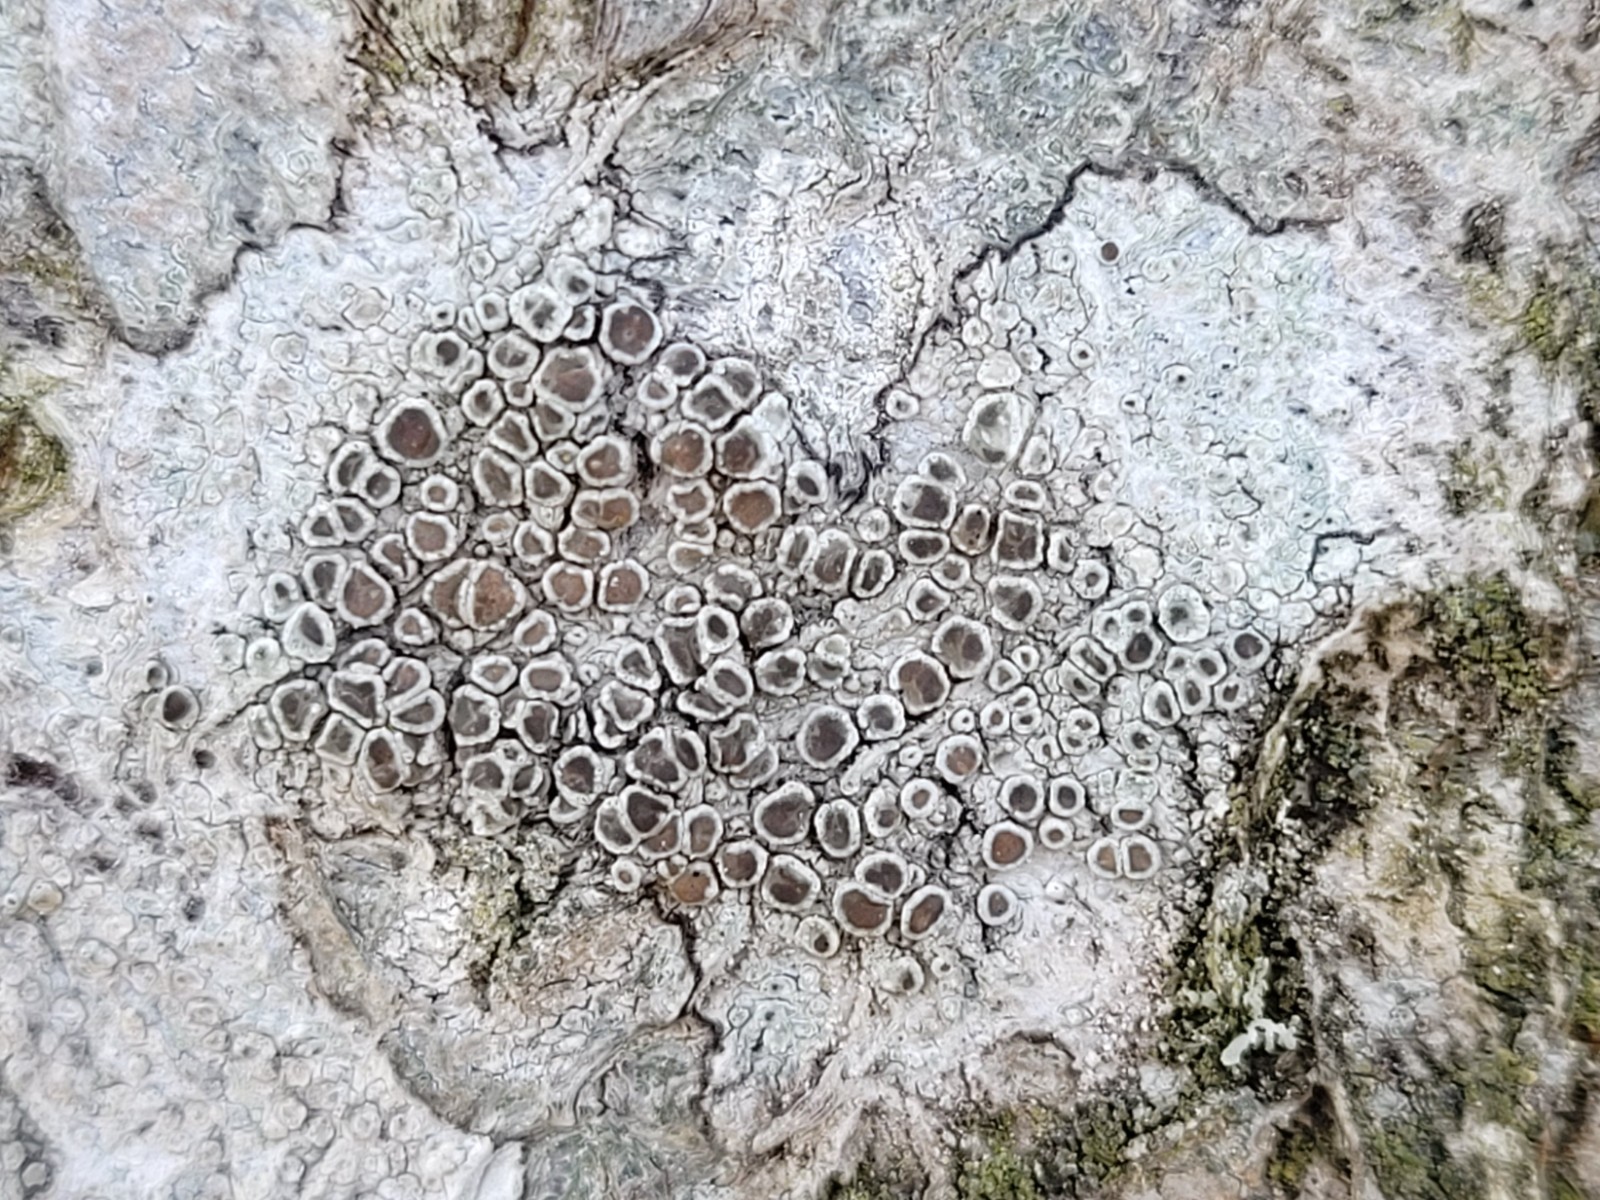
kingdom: Fungi
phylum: Ascomycota
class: Lecanoromycetes
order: Lecanorales
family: Lecanoraceae
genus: Lecanora
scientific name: Lecanora chlarotera
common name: brun kantskivelav
